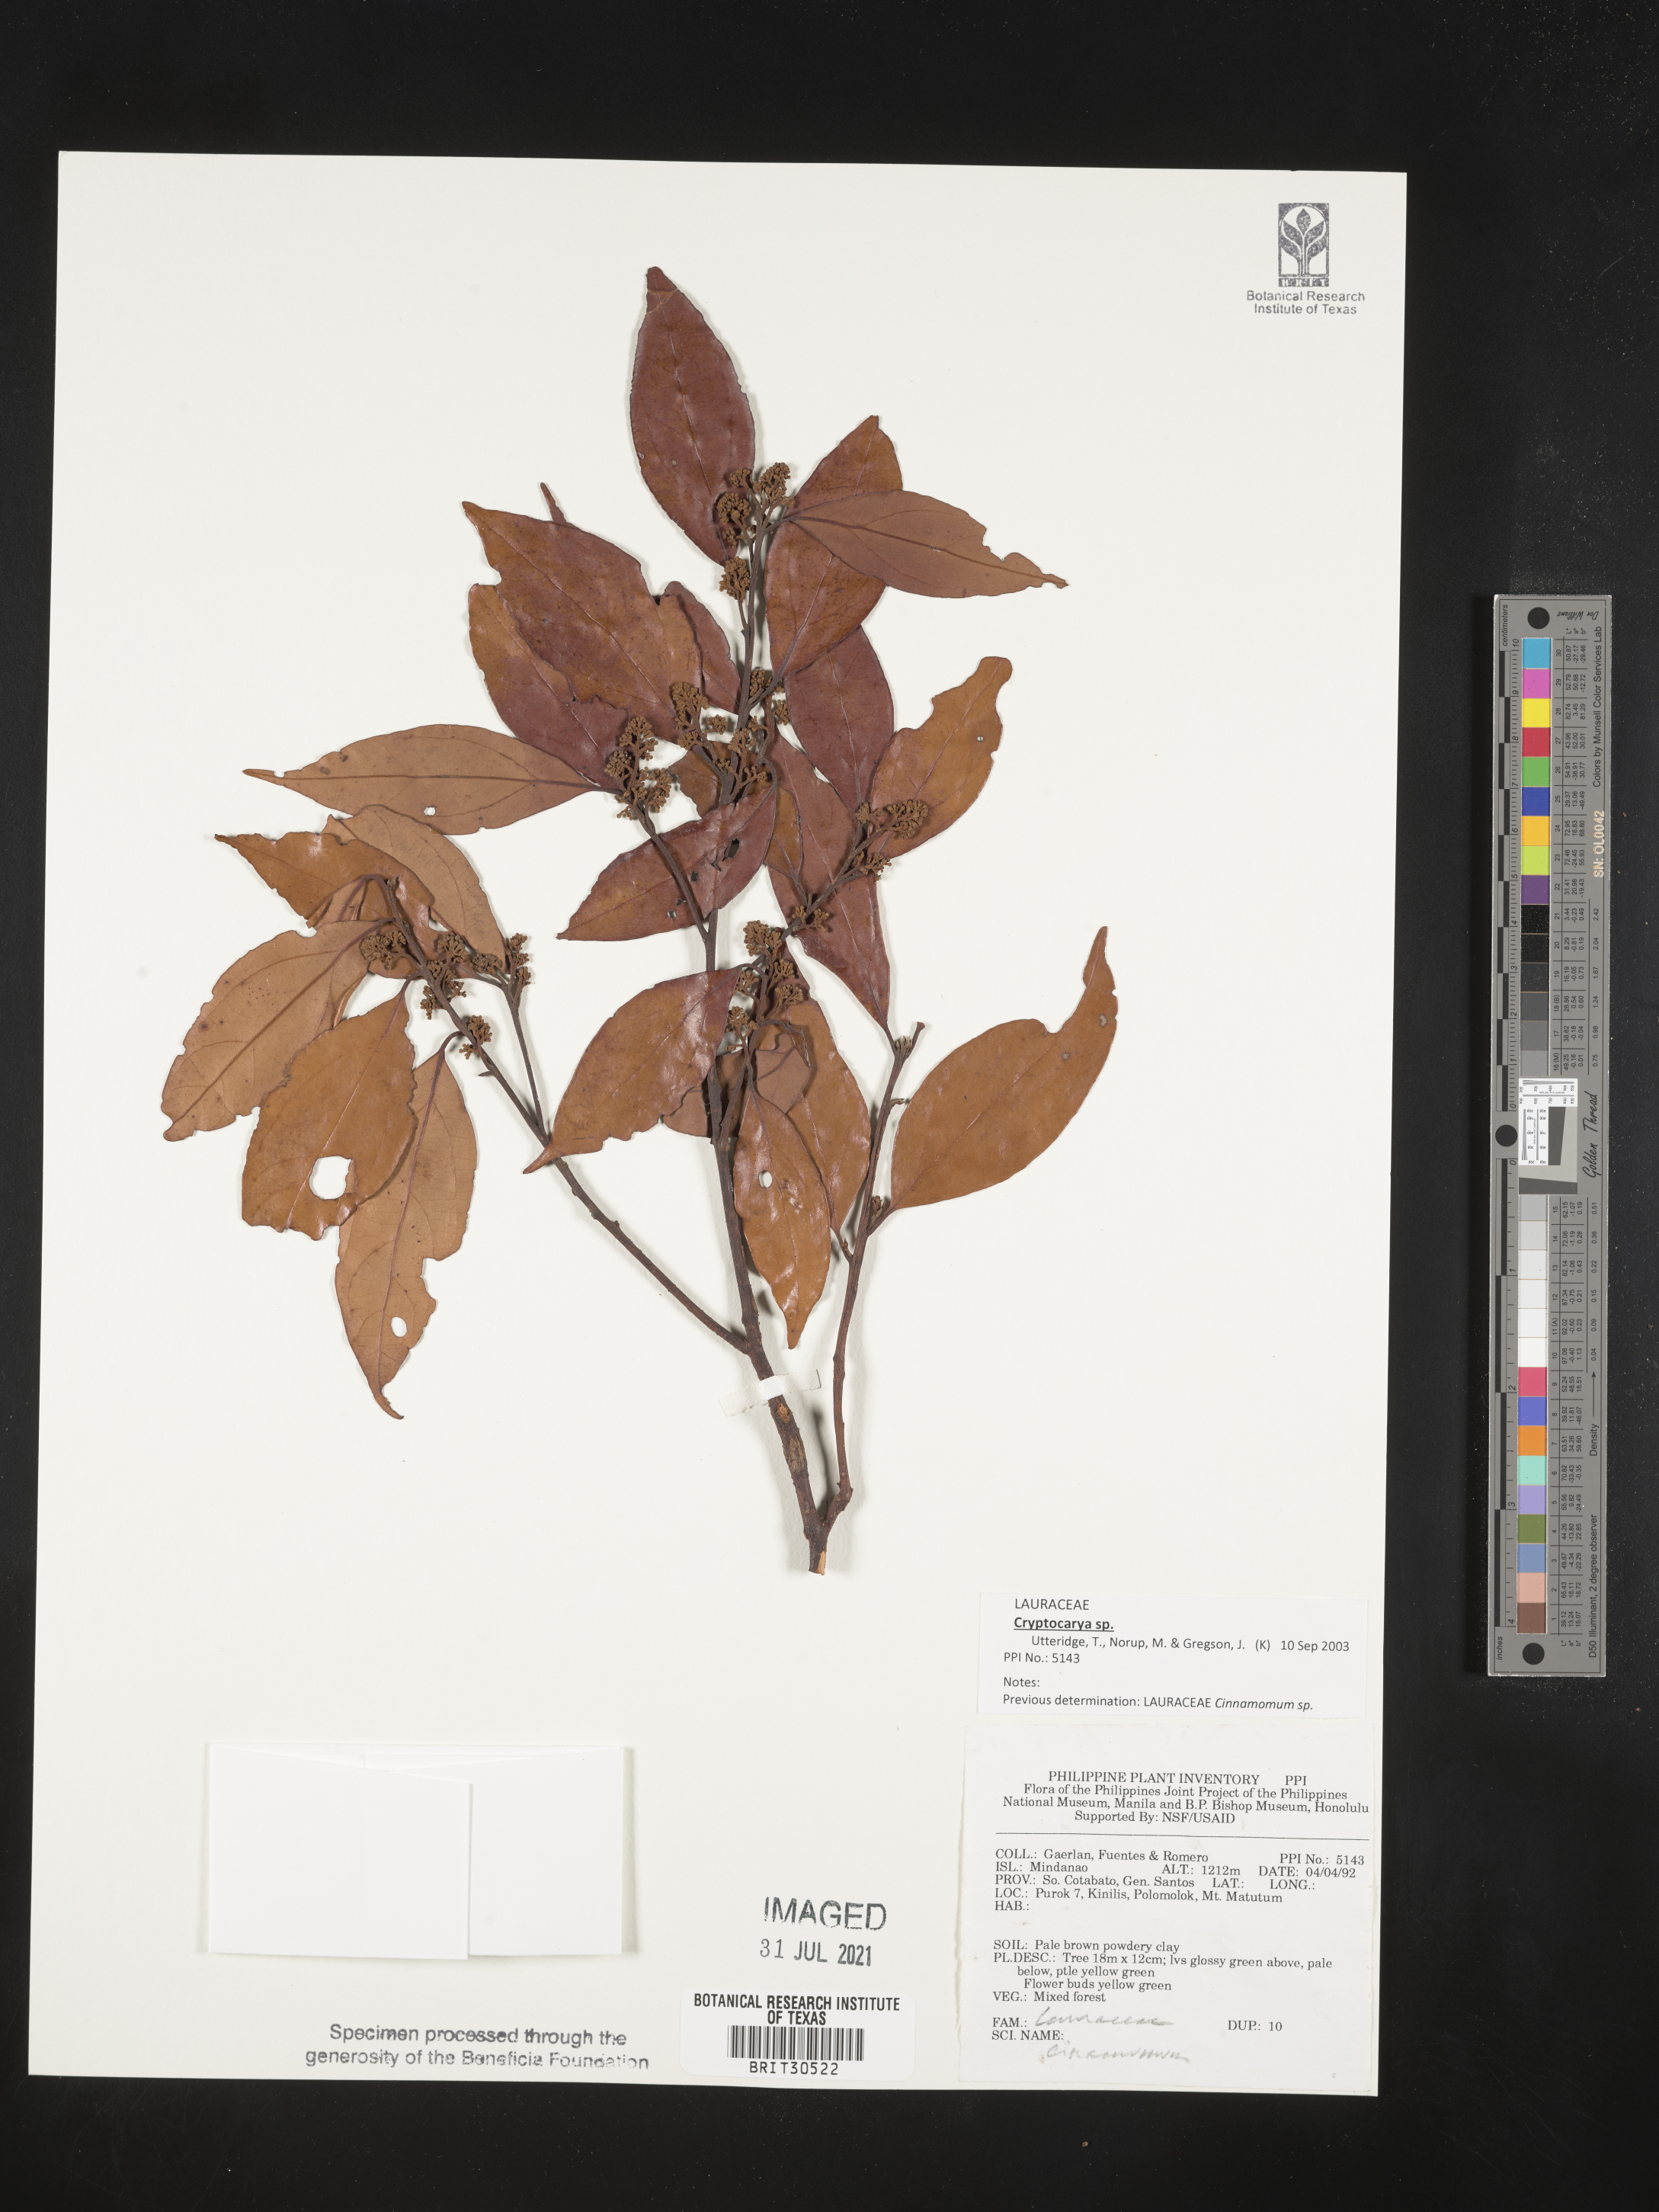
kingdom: Plantae
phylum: Tracheophyta
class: Magnoliopsida
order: Laurales
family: Lauraceae
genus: Cinnamomum
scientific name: Cinnamomum
